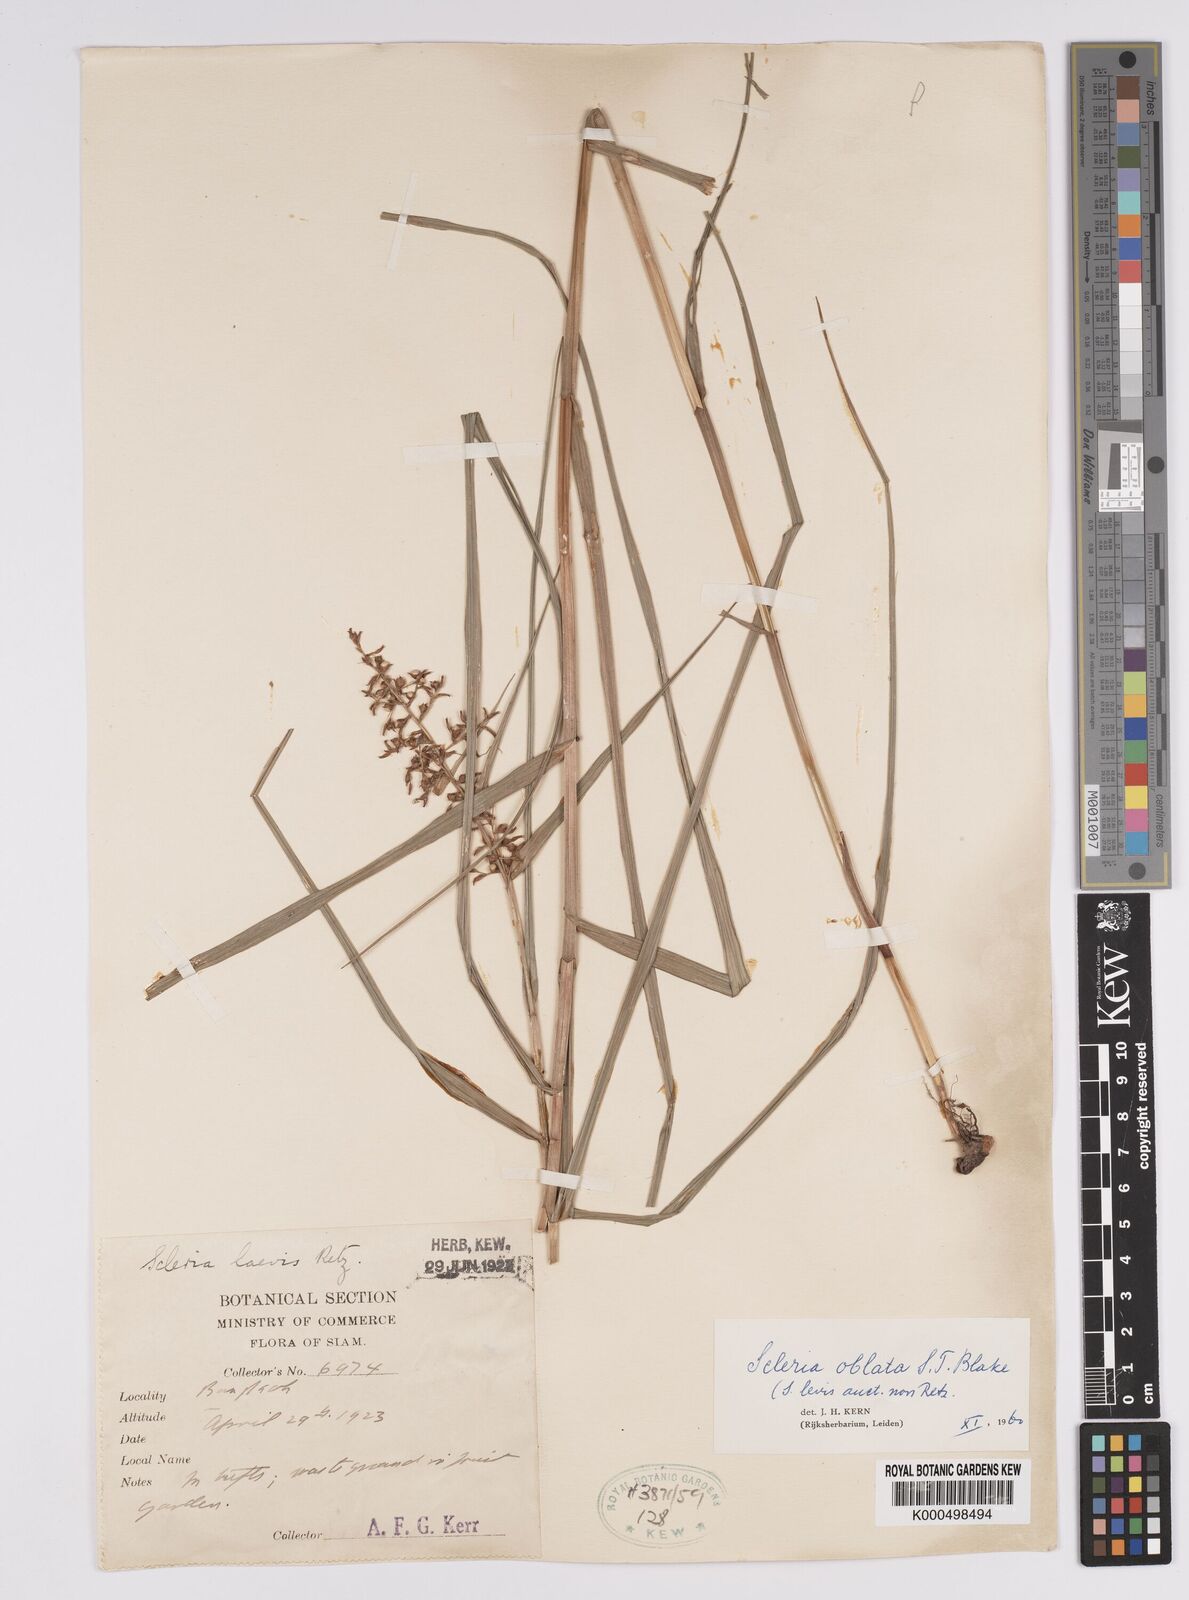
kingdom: Plantae
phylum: Tracheophyta
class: Liliopsida
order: Poales
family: Cyperaceae
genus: Scleria
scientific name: Scleria oblata
